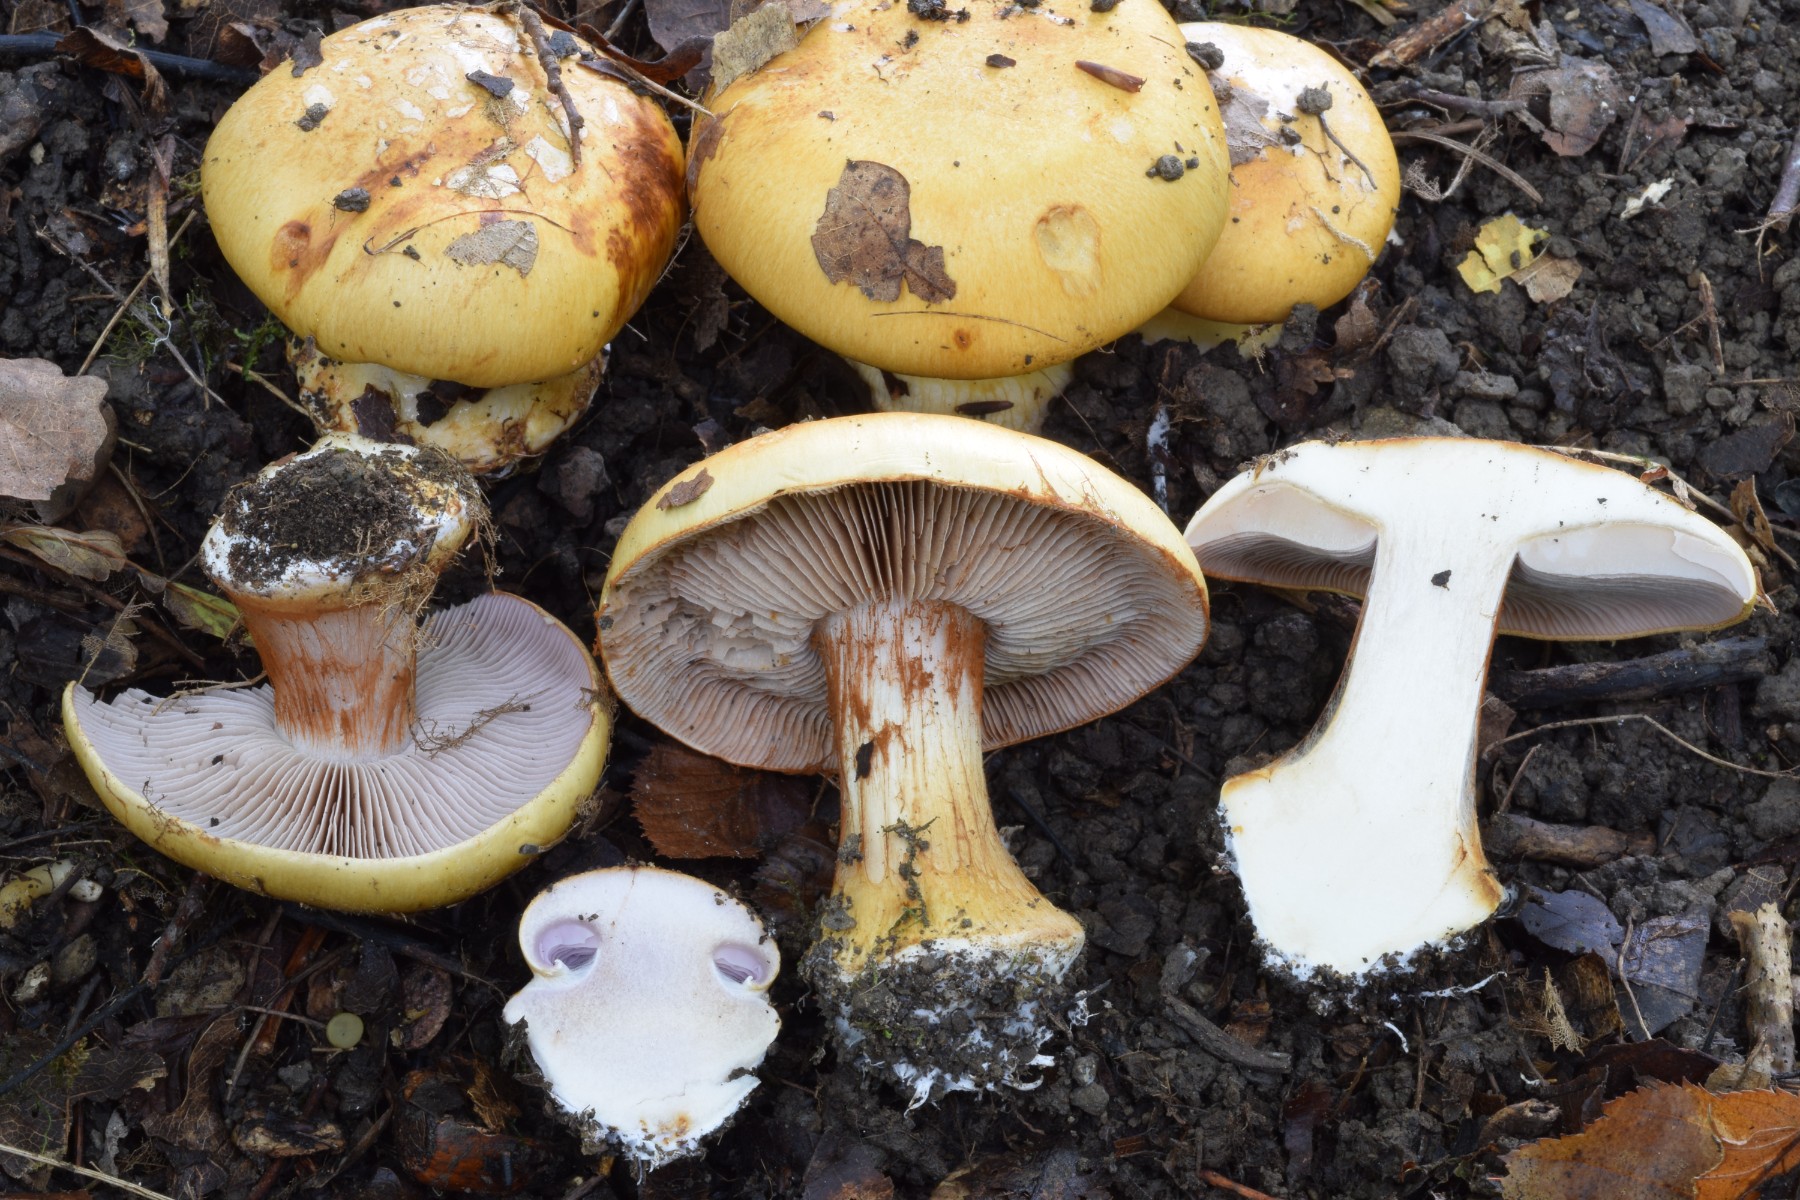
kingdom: Fungi
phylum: Basidiomycota
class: Agaricomycetes
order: Agaricales
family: Cortinariaceae
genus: Calonarius
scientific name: Calonarius pseudocisticola
